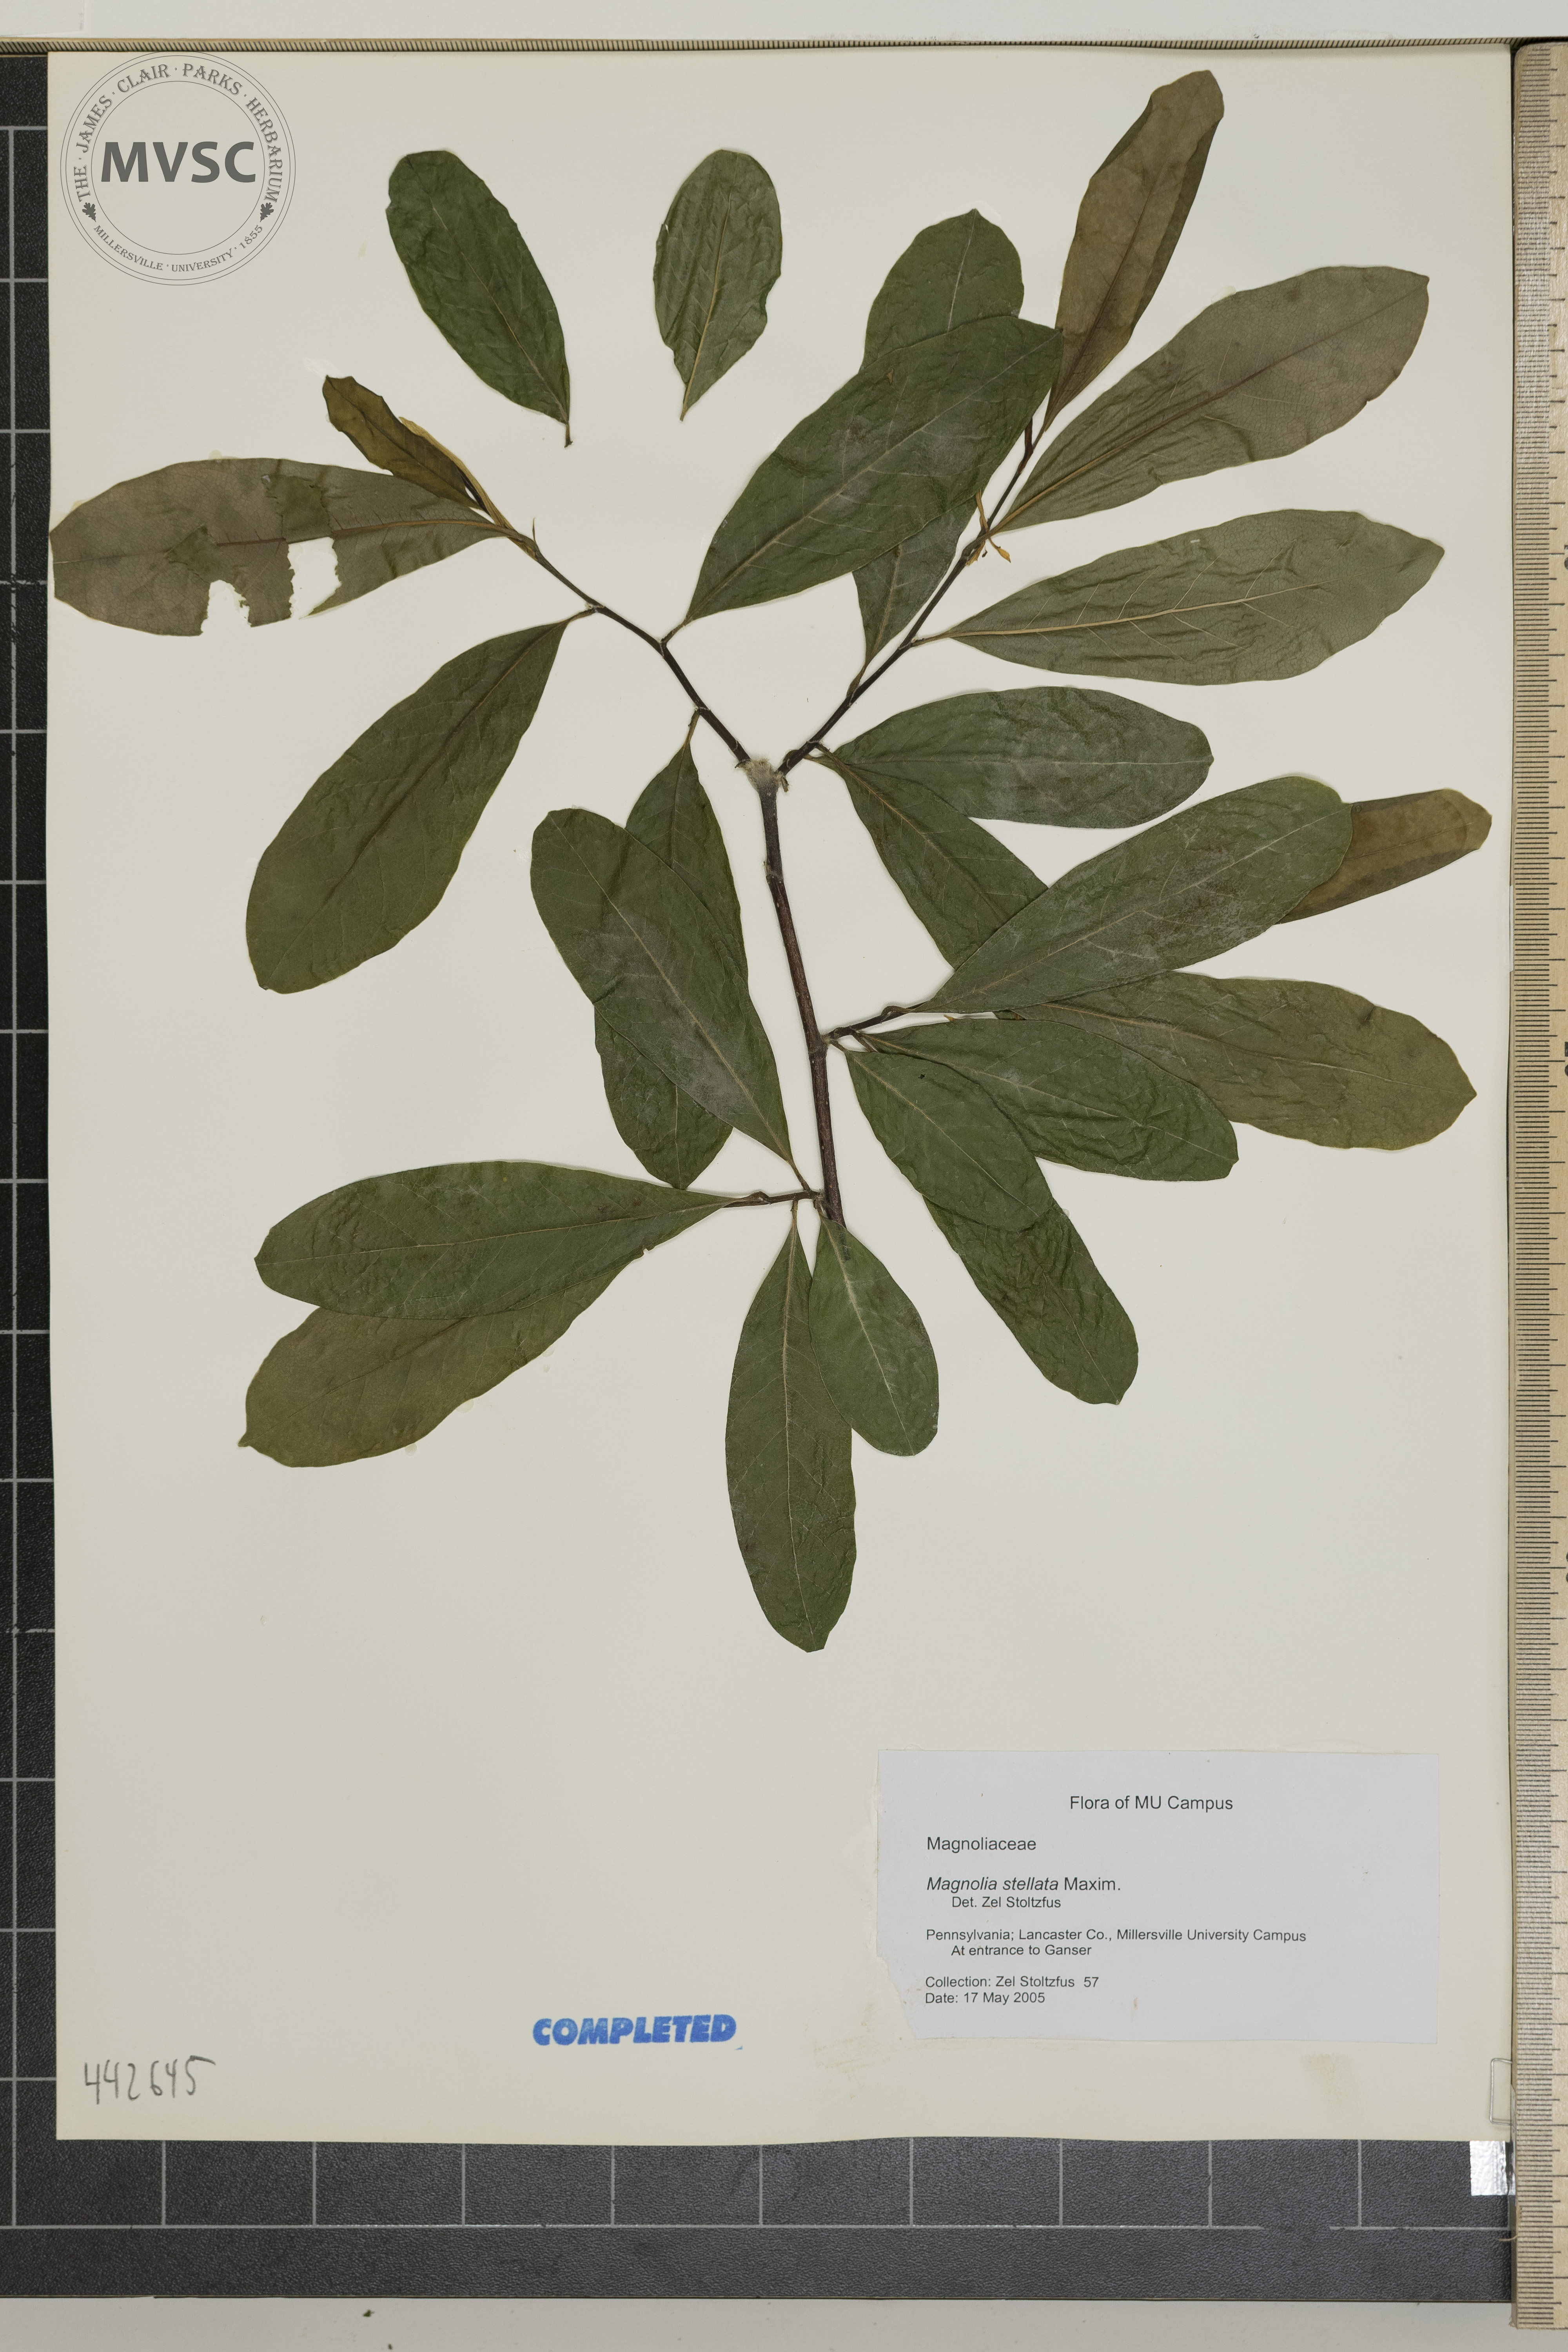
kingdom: Plantae
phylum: Tracheophyta
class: Magnoliopsida
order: Magnoliales
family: Magnoliaceae
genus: Magnolia
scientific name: Magnolia stellata
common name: Star magnolia
